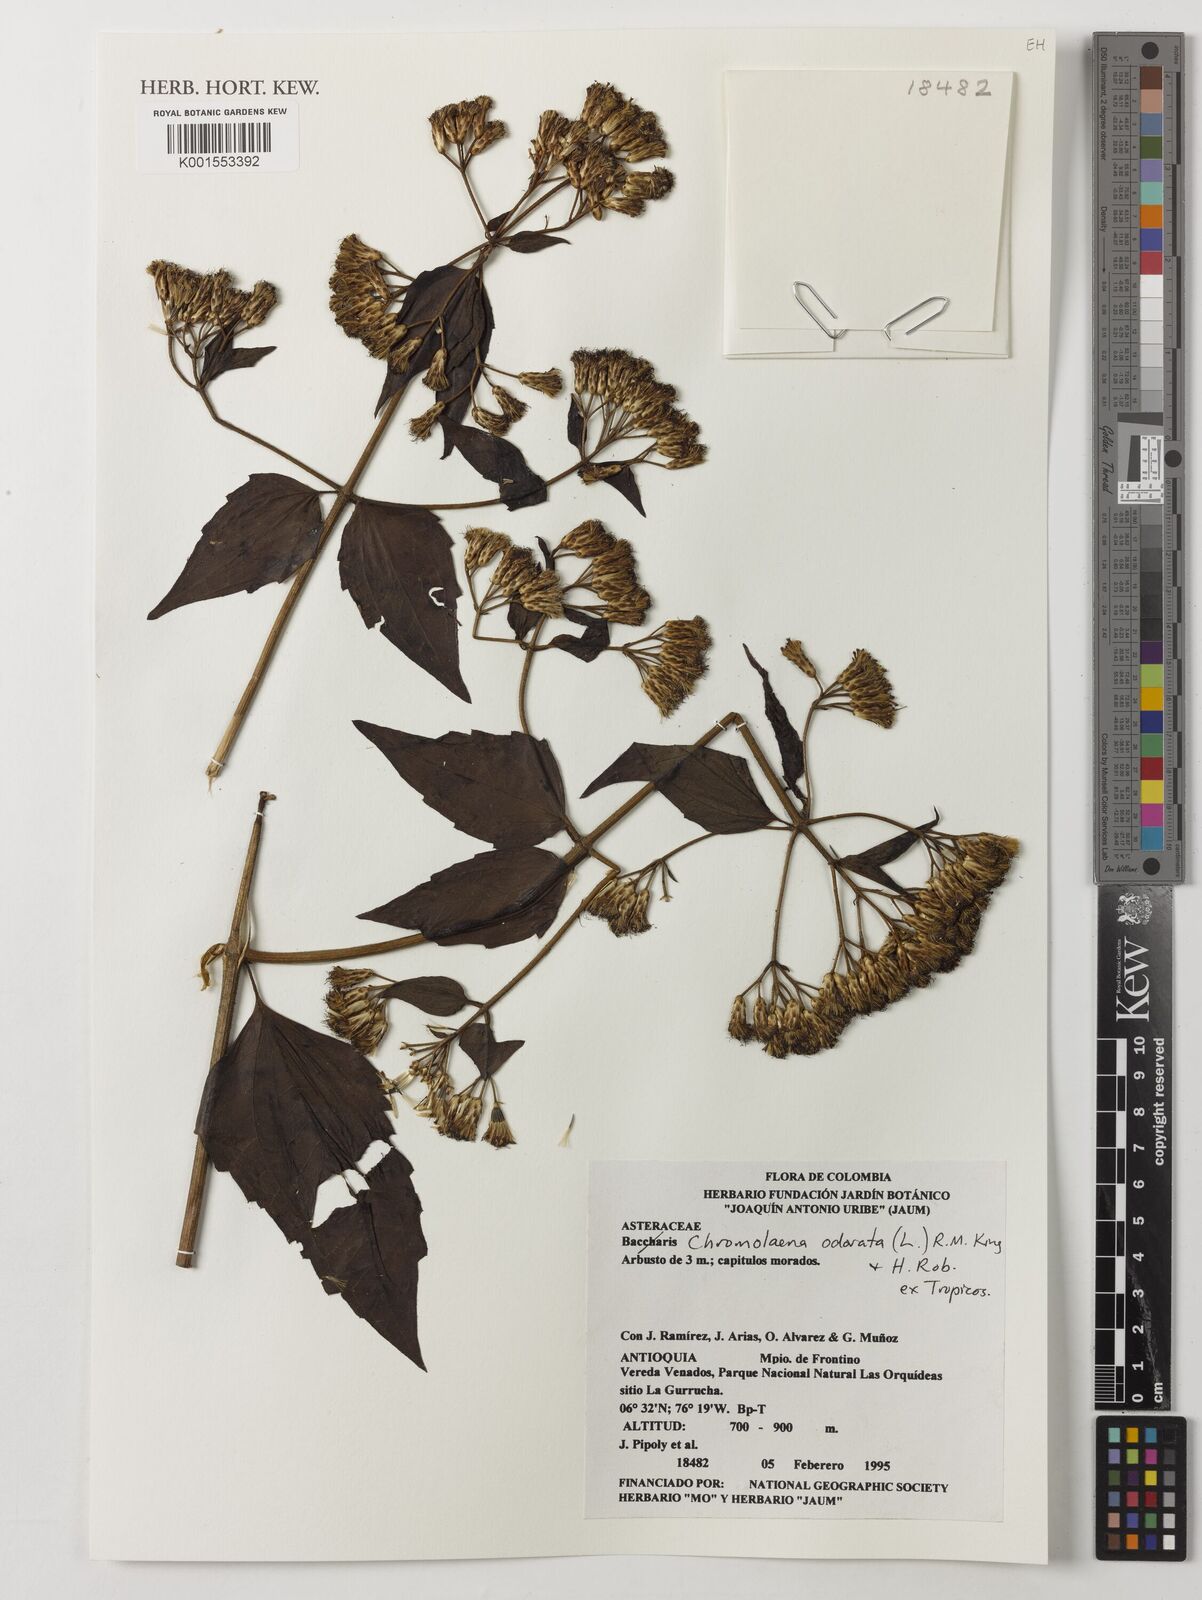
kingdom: Plantae
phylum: Tracheophyta
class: Magnoliopsida
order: Asterales
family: Asteraceae
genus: Chromolaena
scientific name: Chromolaena odorata
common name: Siamweed
